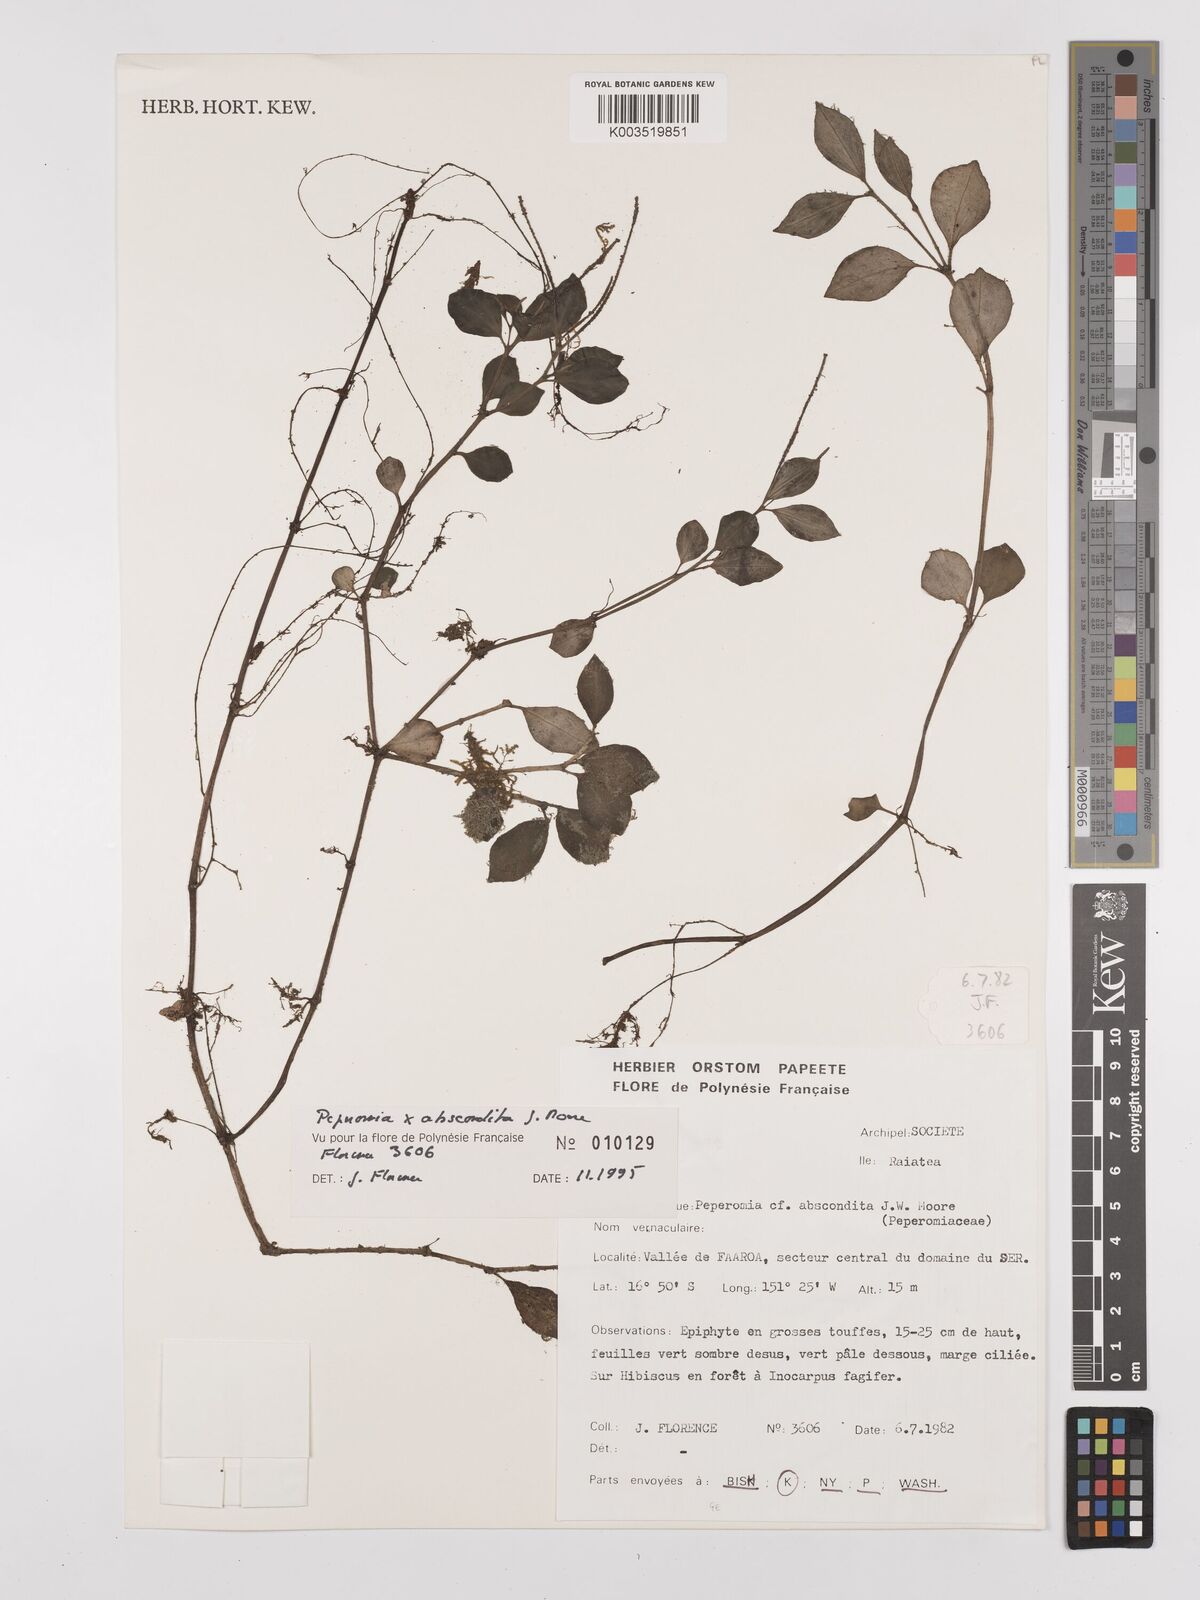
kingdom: Plantae
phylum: Tracheophyta
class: Magnoliopsida
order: Piperales
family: Piperaceae
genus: Peperomia
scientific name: Peperomia abscondita
